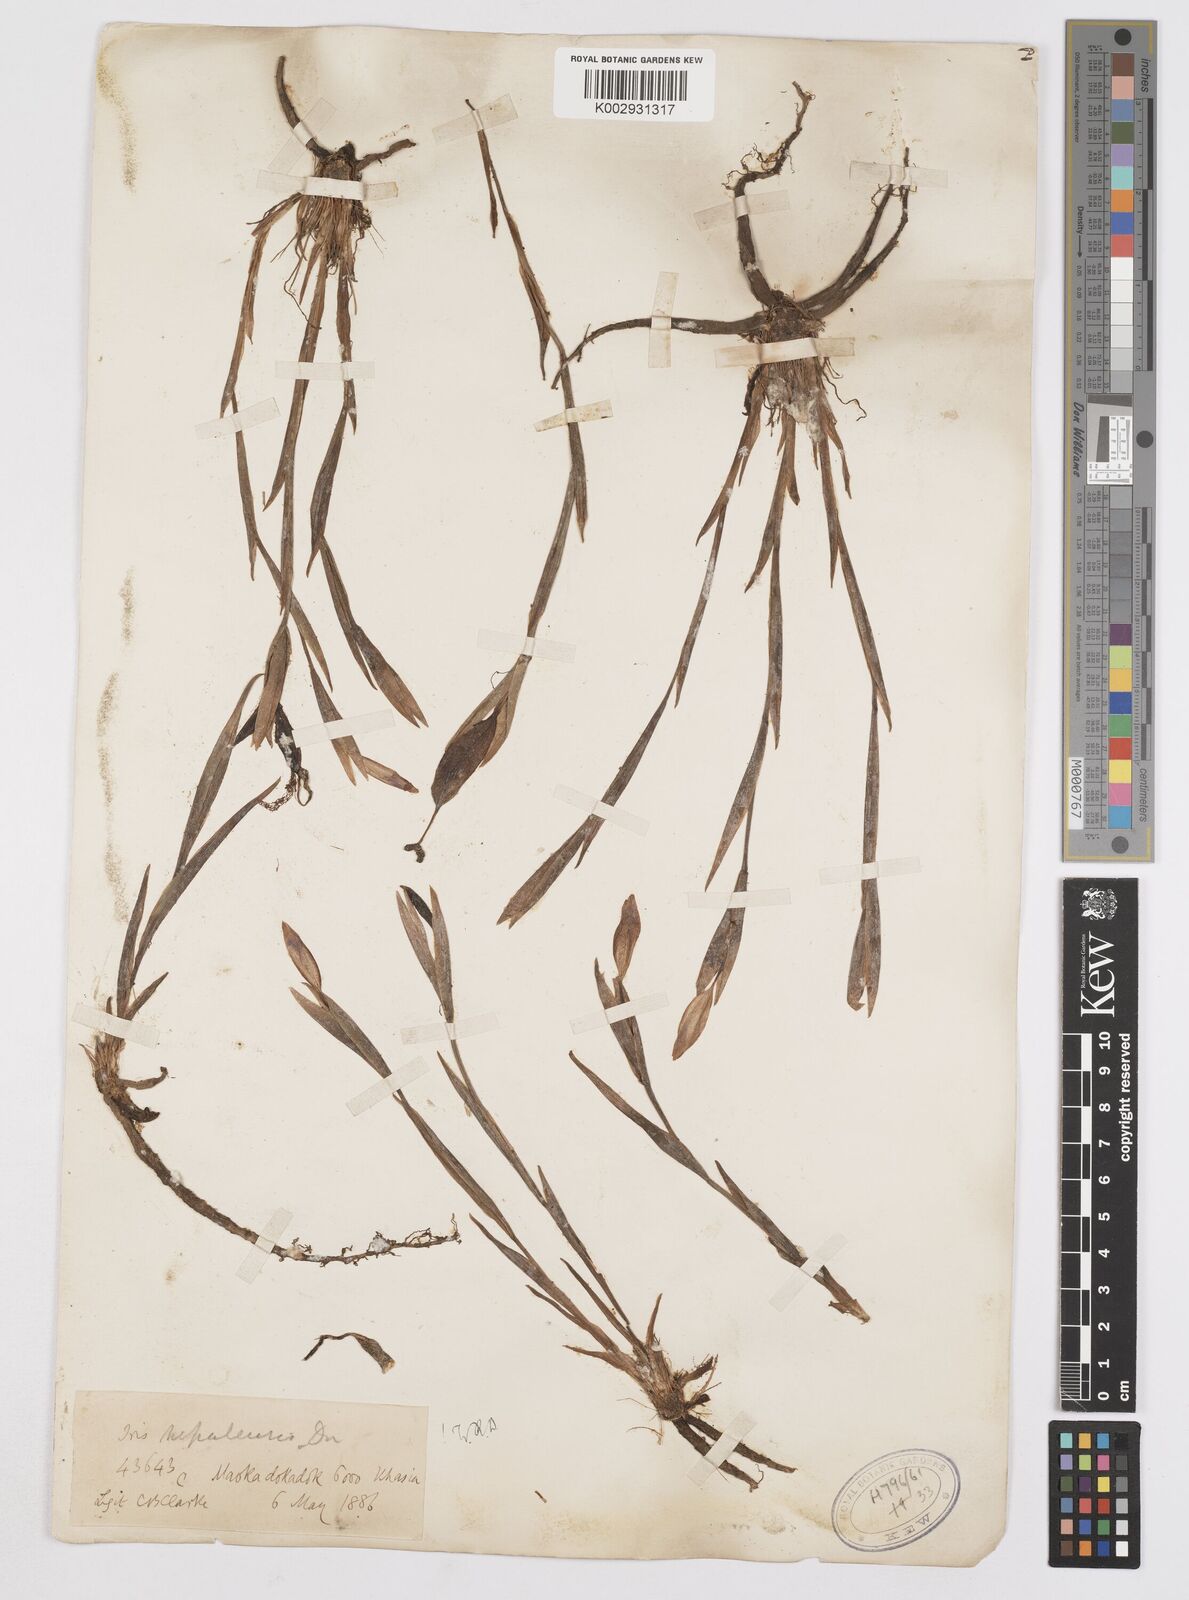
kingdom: Plantae
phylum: Tracheophyta
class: Liliopsida
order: Asparagales
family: Iridaceae
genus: Iris
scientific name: Iris decora
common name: Nepal iris
